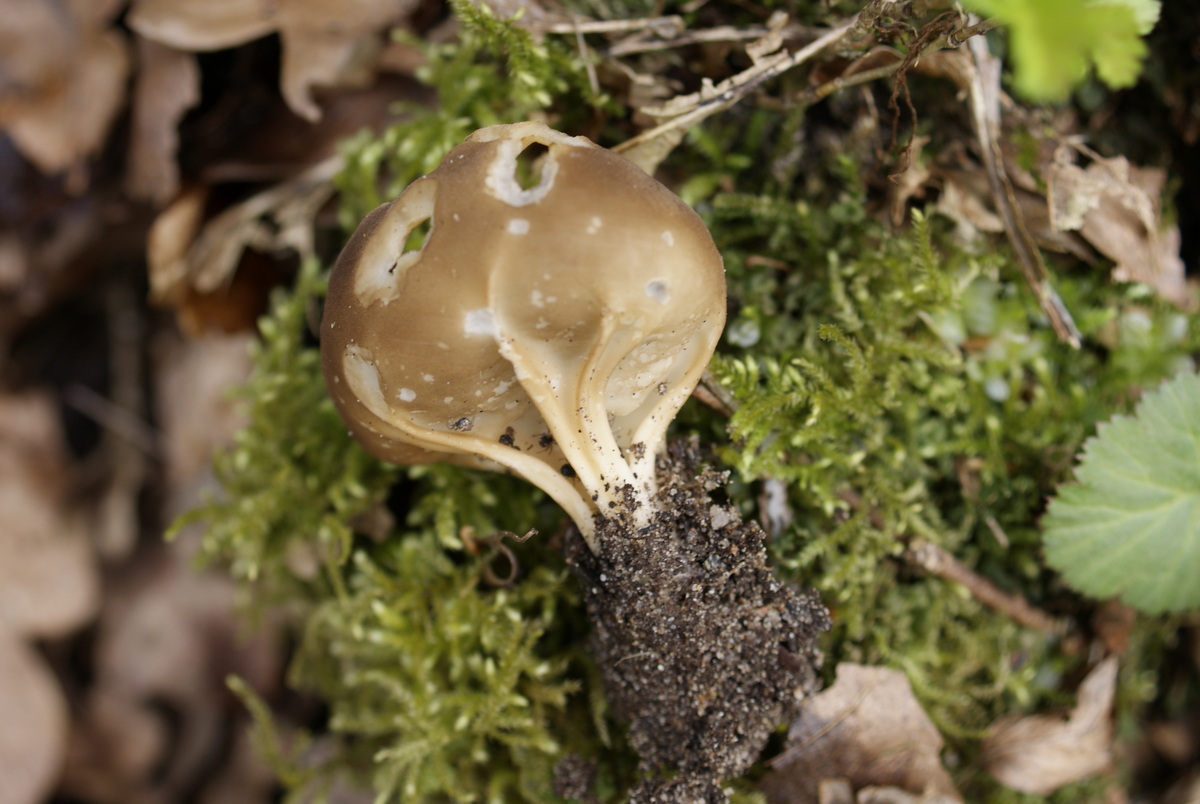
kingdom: Fungi
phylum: Ascomycota
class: Pezizomycetes
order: Pezizales
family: Helvellaceae
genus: Helvella
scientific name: Helvella acetabulum
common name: pokal-foldhat
